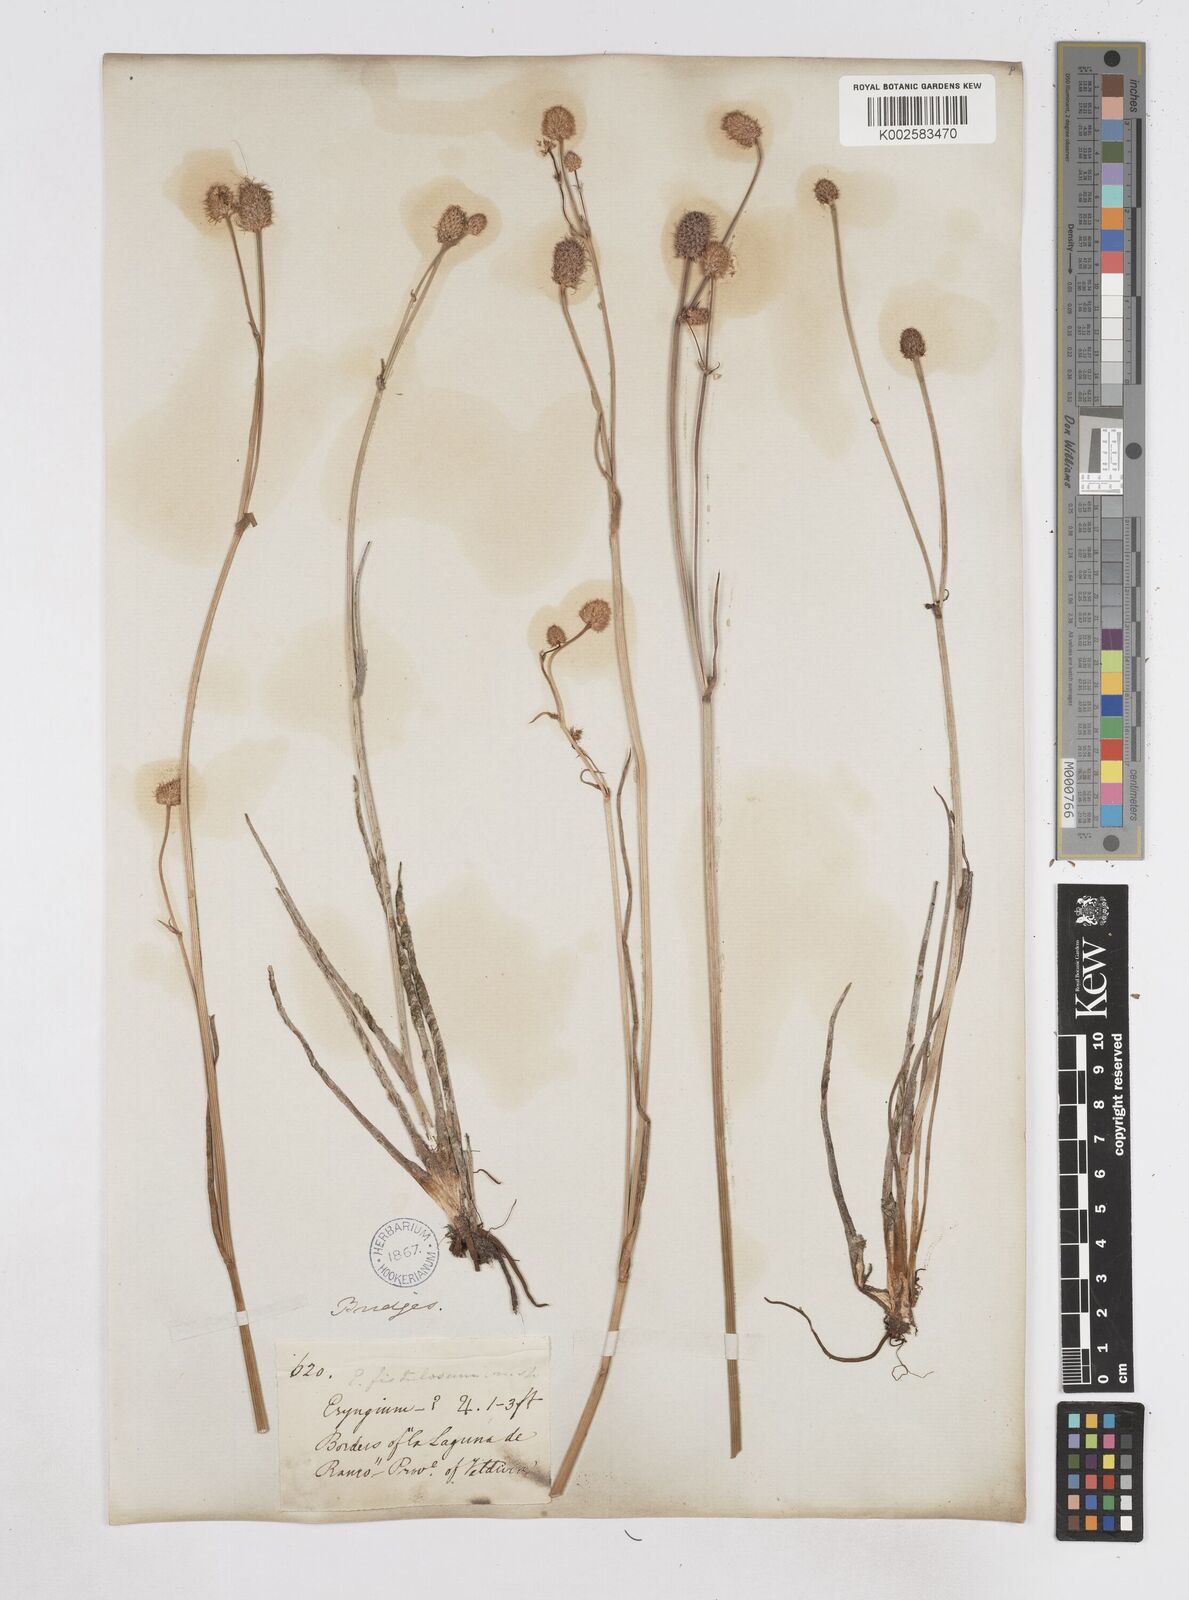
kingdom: Plantae
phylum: Tracheophyta
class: Magnoliopsida
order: Apiales
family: Apiaceae
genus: Eryngium
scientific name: Eryngium pseudojunceum
